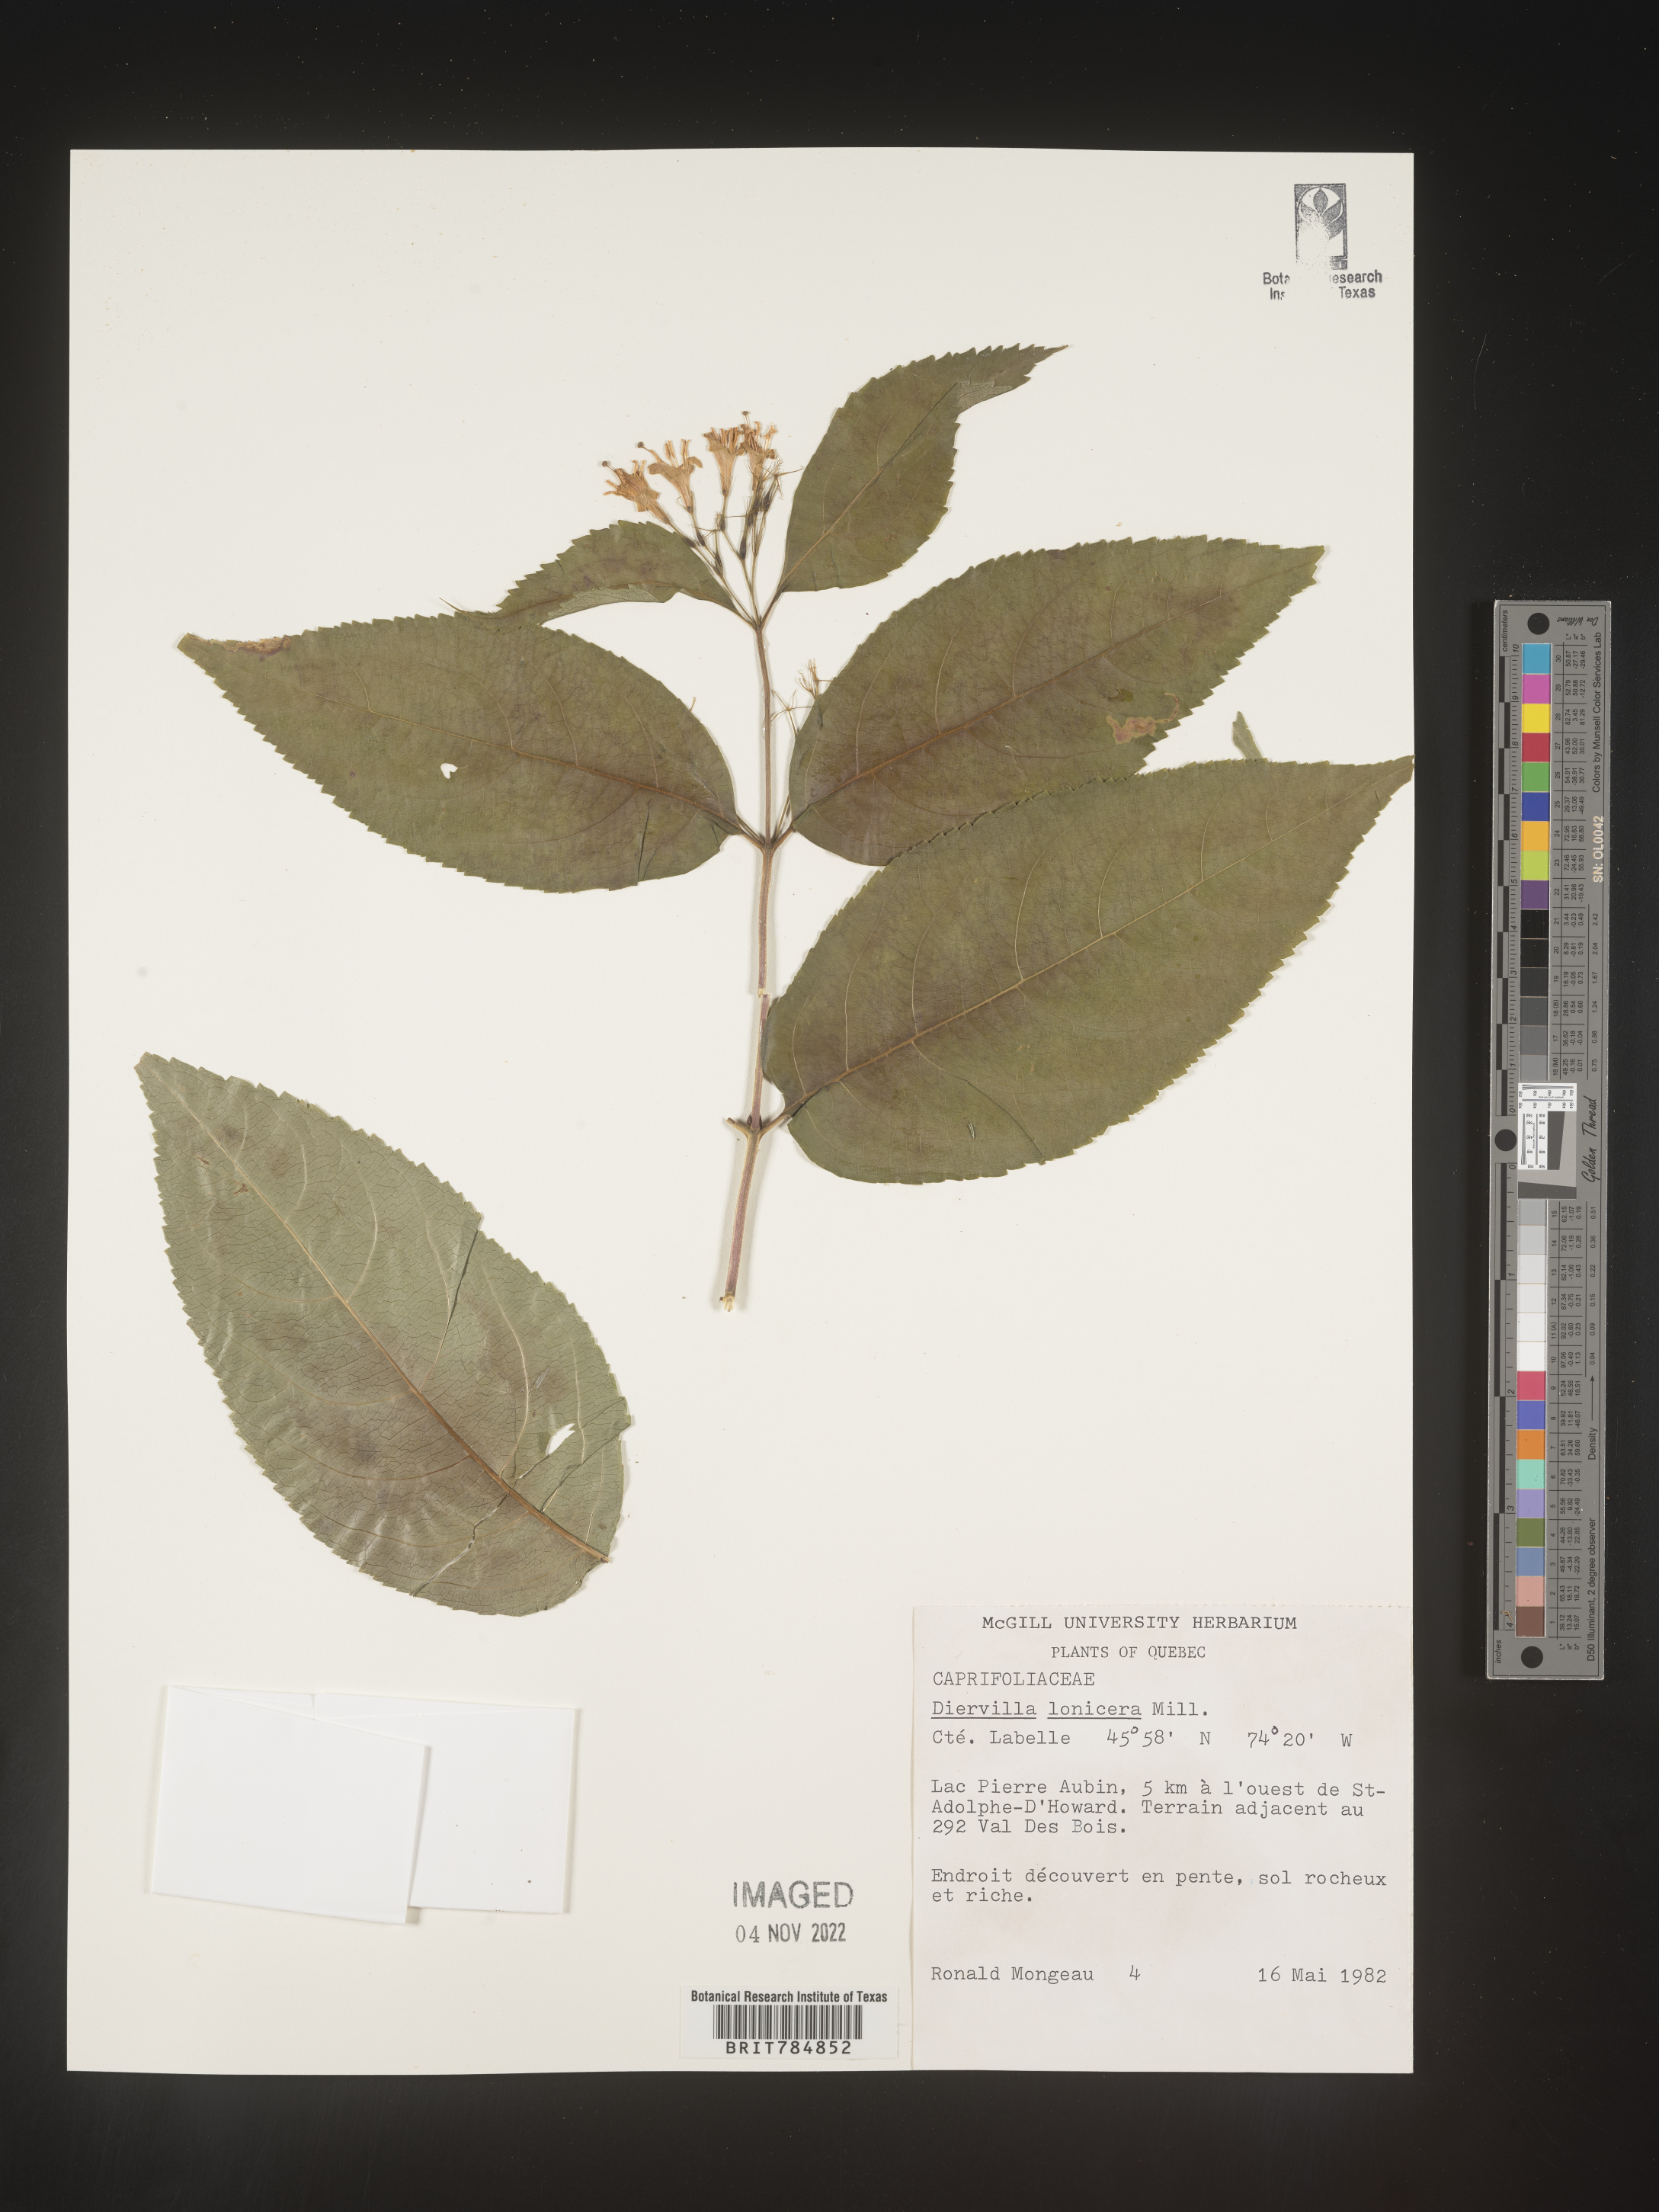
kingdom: Plantae
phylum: Tracheophyta
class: Magnoliopsida
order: Dipsacales
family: Caprifoliaceae
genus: Diervilla
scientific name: Diervilla lonicera
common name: Bush-honeysuckle
